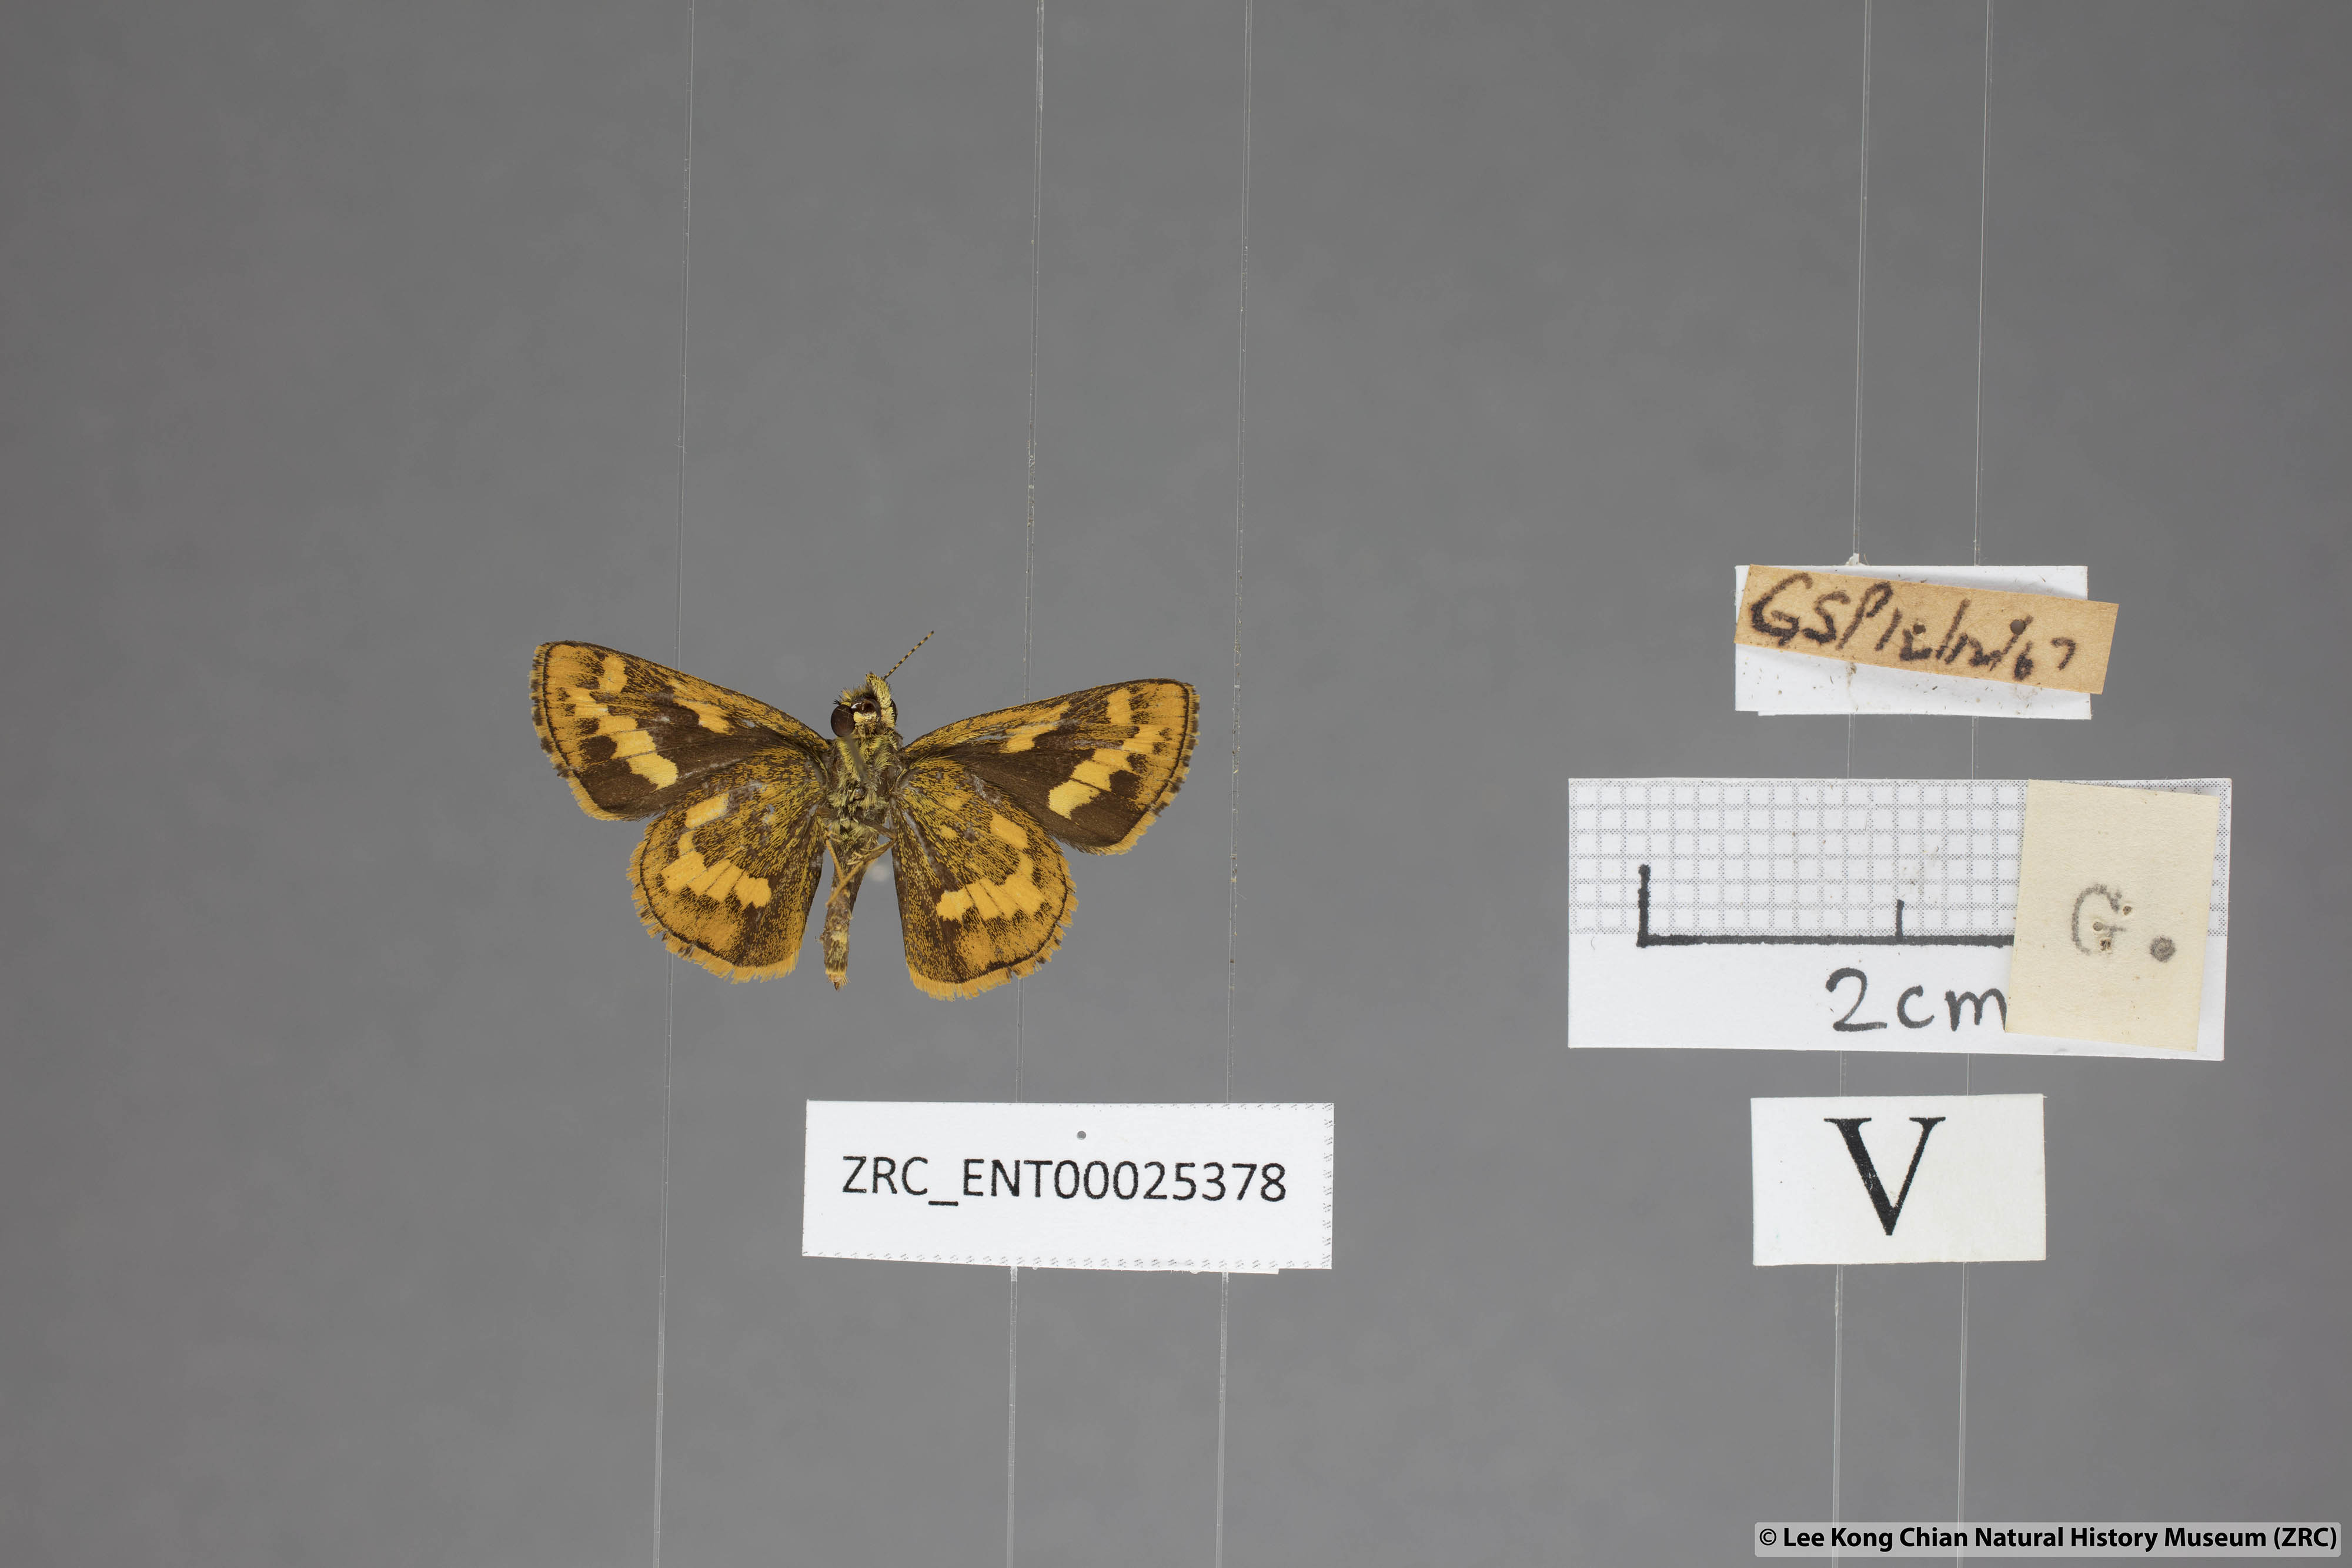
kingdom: Animalia
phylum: Arthropoda
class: Insecta
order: Lepidoptera
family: Hesperiidae
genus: Potanthus
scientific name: Potanthus ganda
